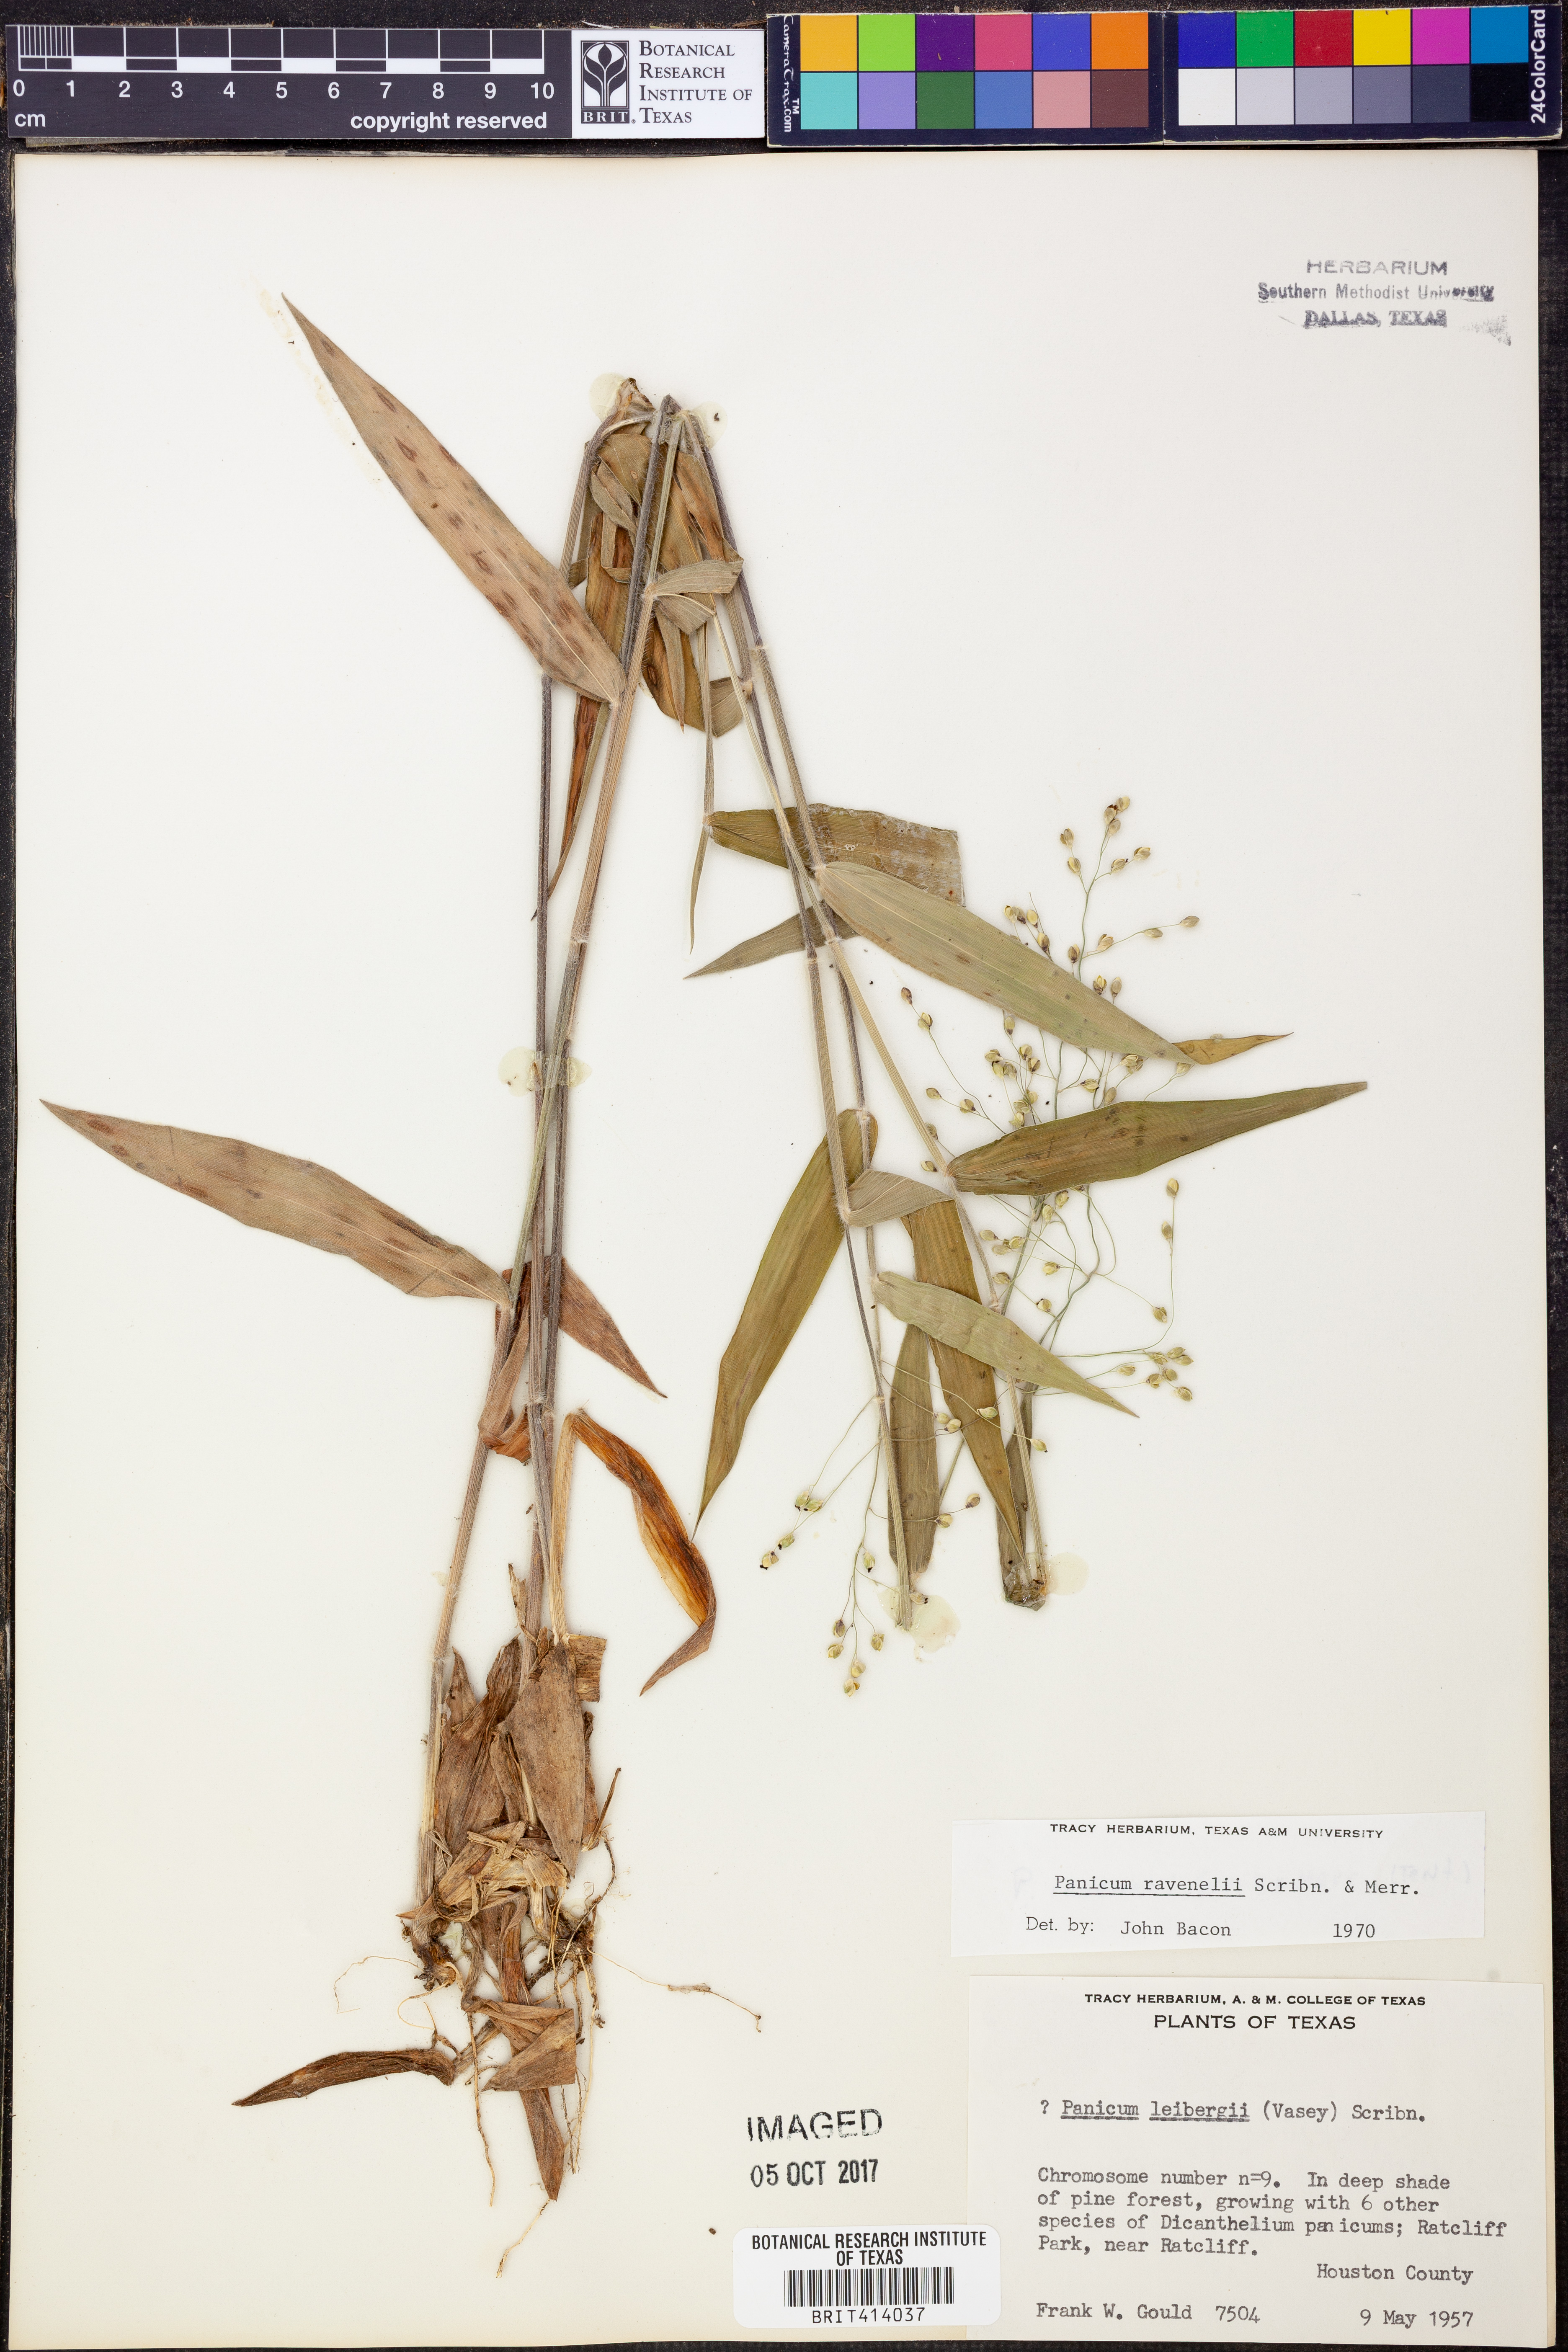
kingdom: Plantae
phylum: Tracheophyta
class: Liliopsida
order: Poales
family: Poaceae
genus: Dichanthelium
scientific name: Dichanthelium ravenelii
